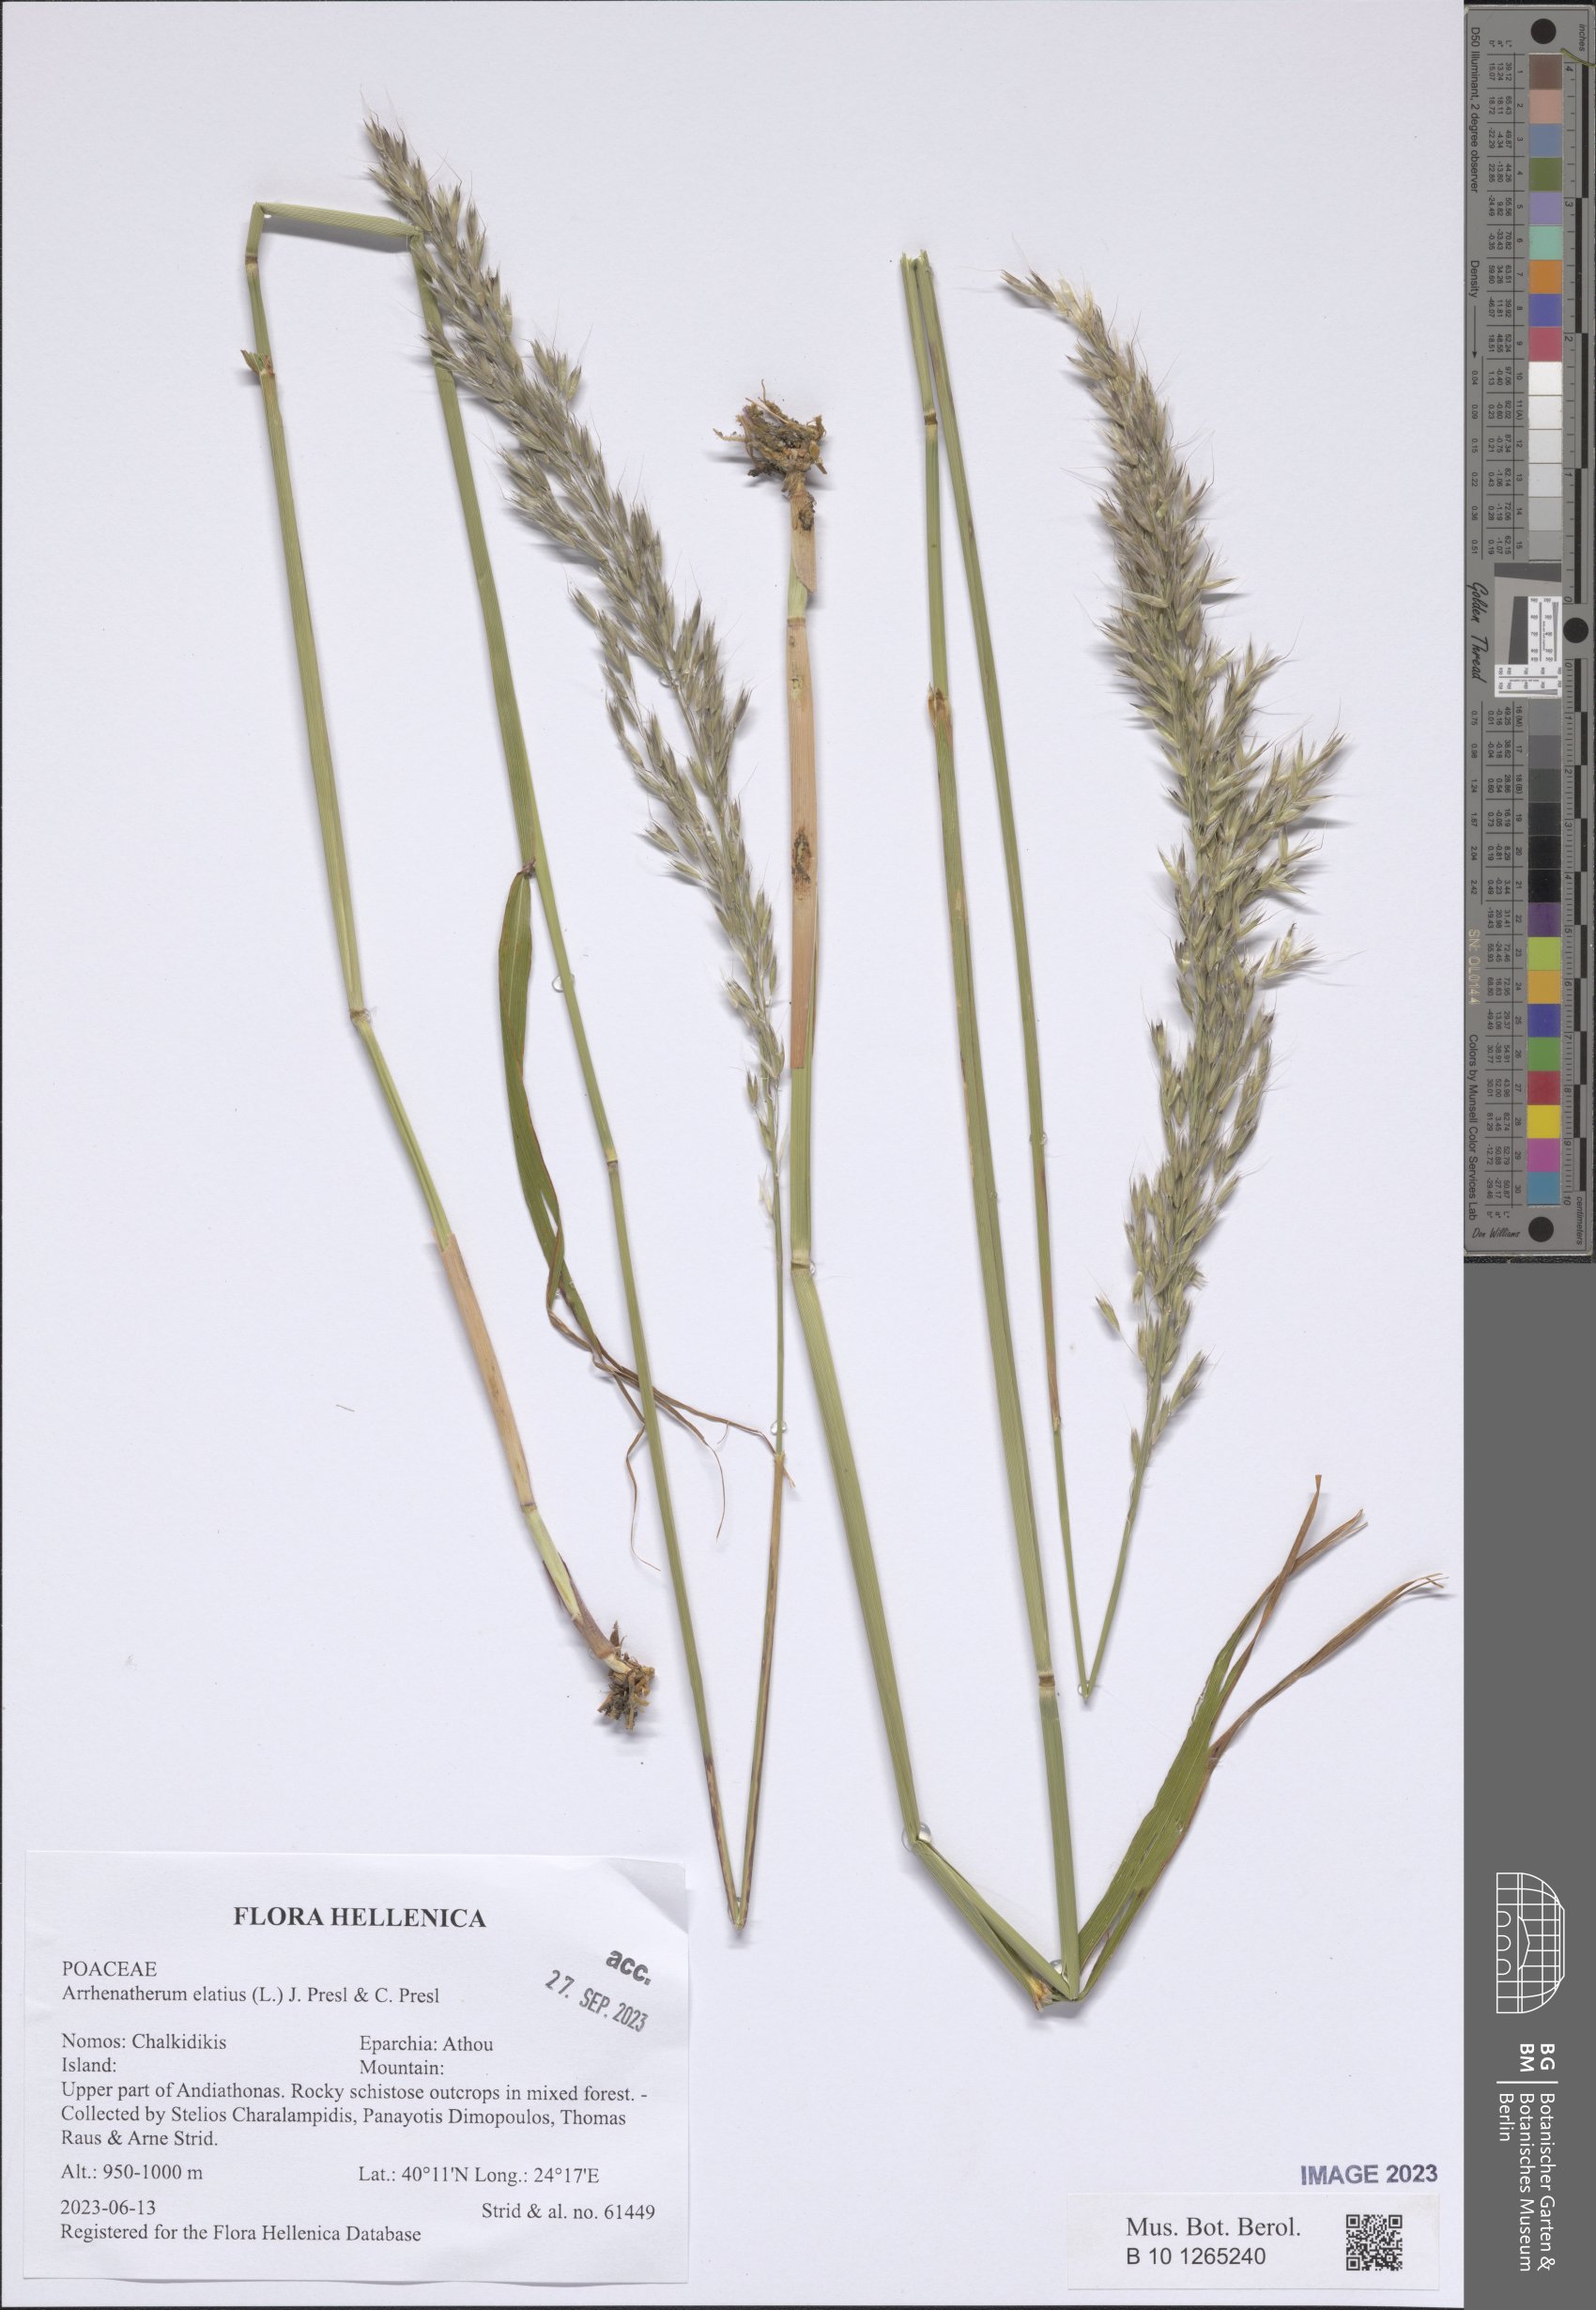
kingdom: Plantae
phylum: Tracheophyta
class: Liliopsida
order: Poales
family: Poaceae
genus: Arrhenatherum
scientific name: Arrhenatherum elatius
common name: Tall oatgrass
